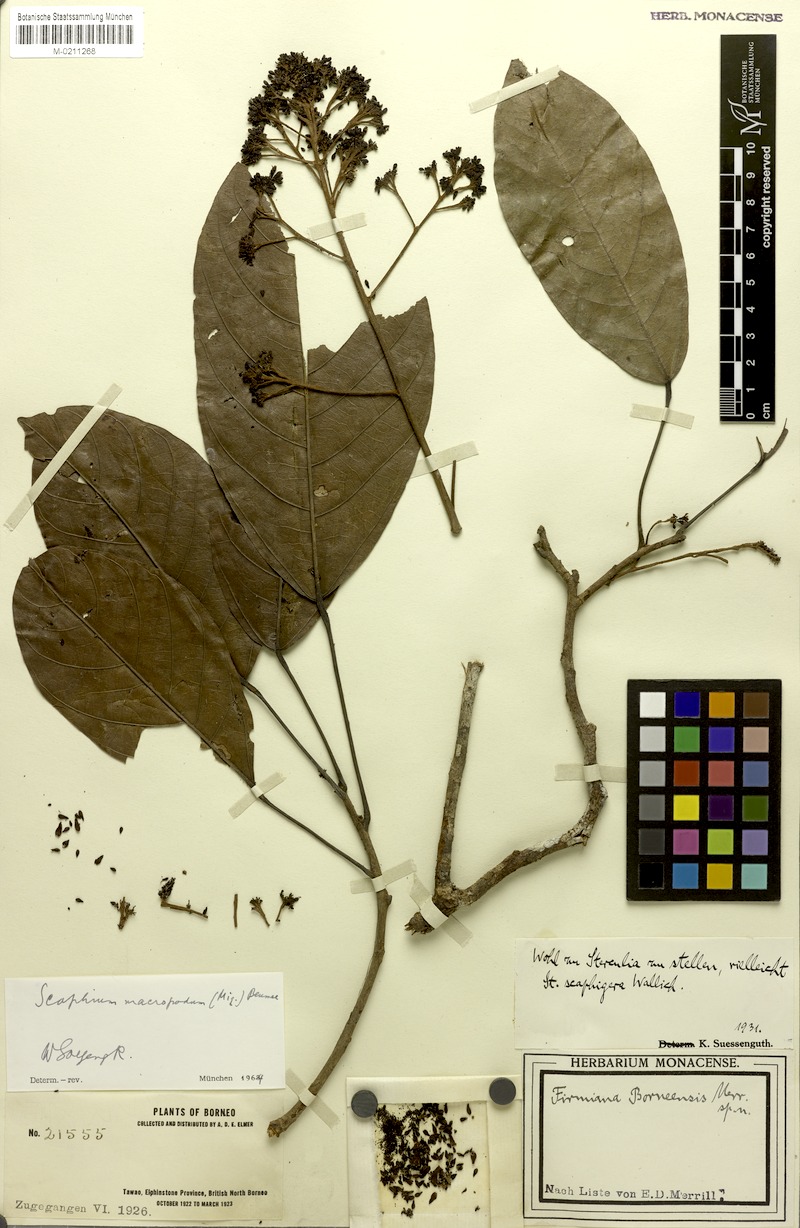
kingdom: Plantae
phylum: Tracheophyta
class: Magnoliopsida
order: Malvales
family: Malvaceae
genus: Scaphium
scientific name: Scaphium macropodum
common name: Malva nut
